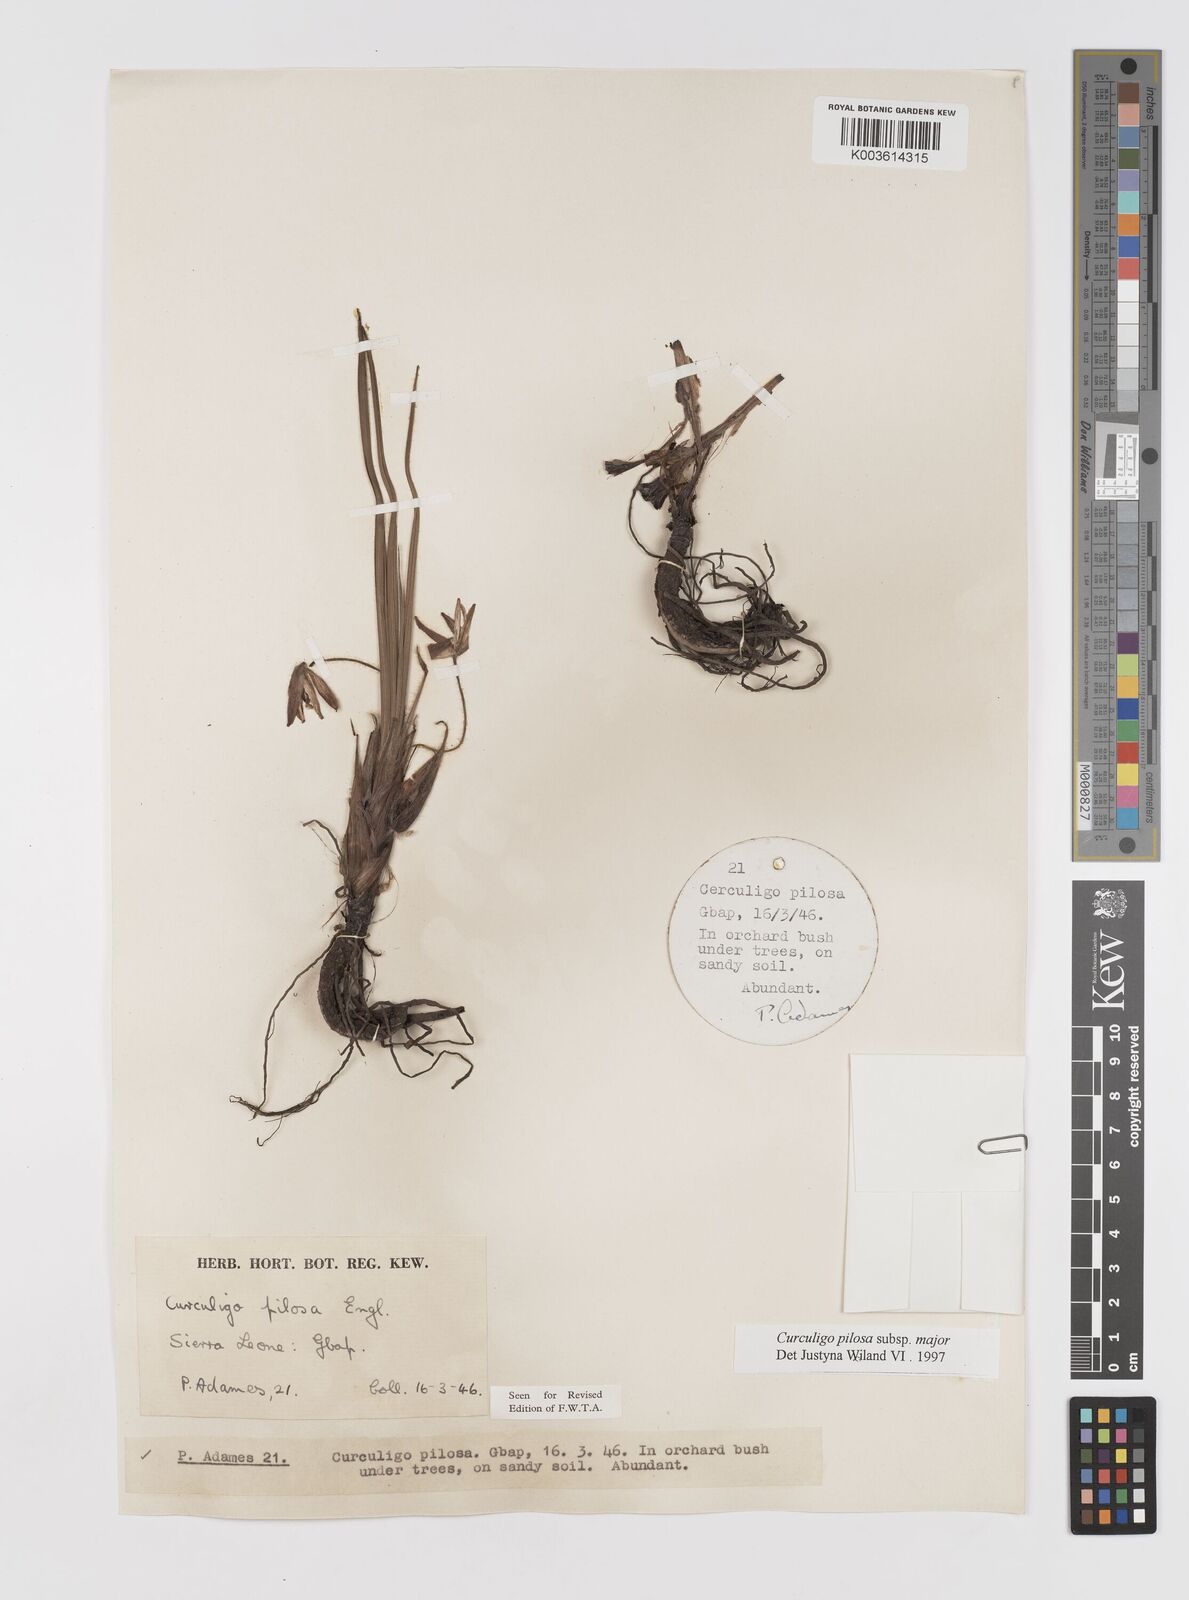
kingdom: Plantae
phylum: Tracheophyta
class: Liliopsida
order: Asparagales
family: Hypoxidaceae
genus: Curculigo
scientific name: Curculigo pilosa
